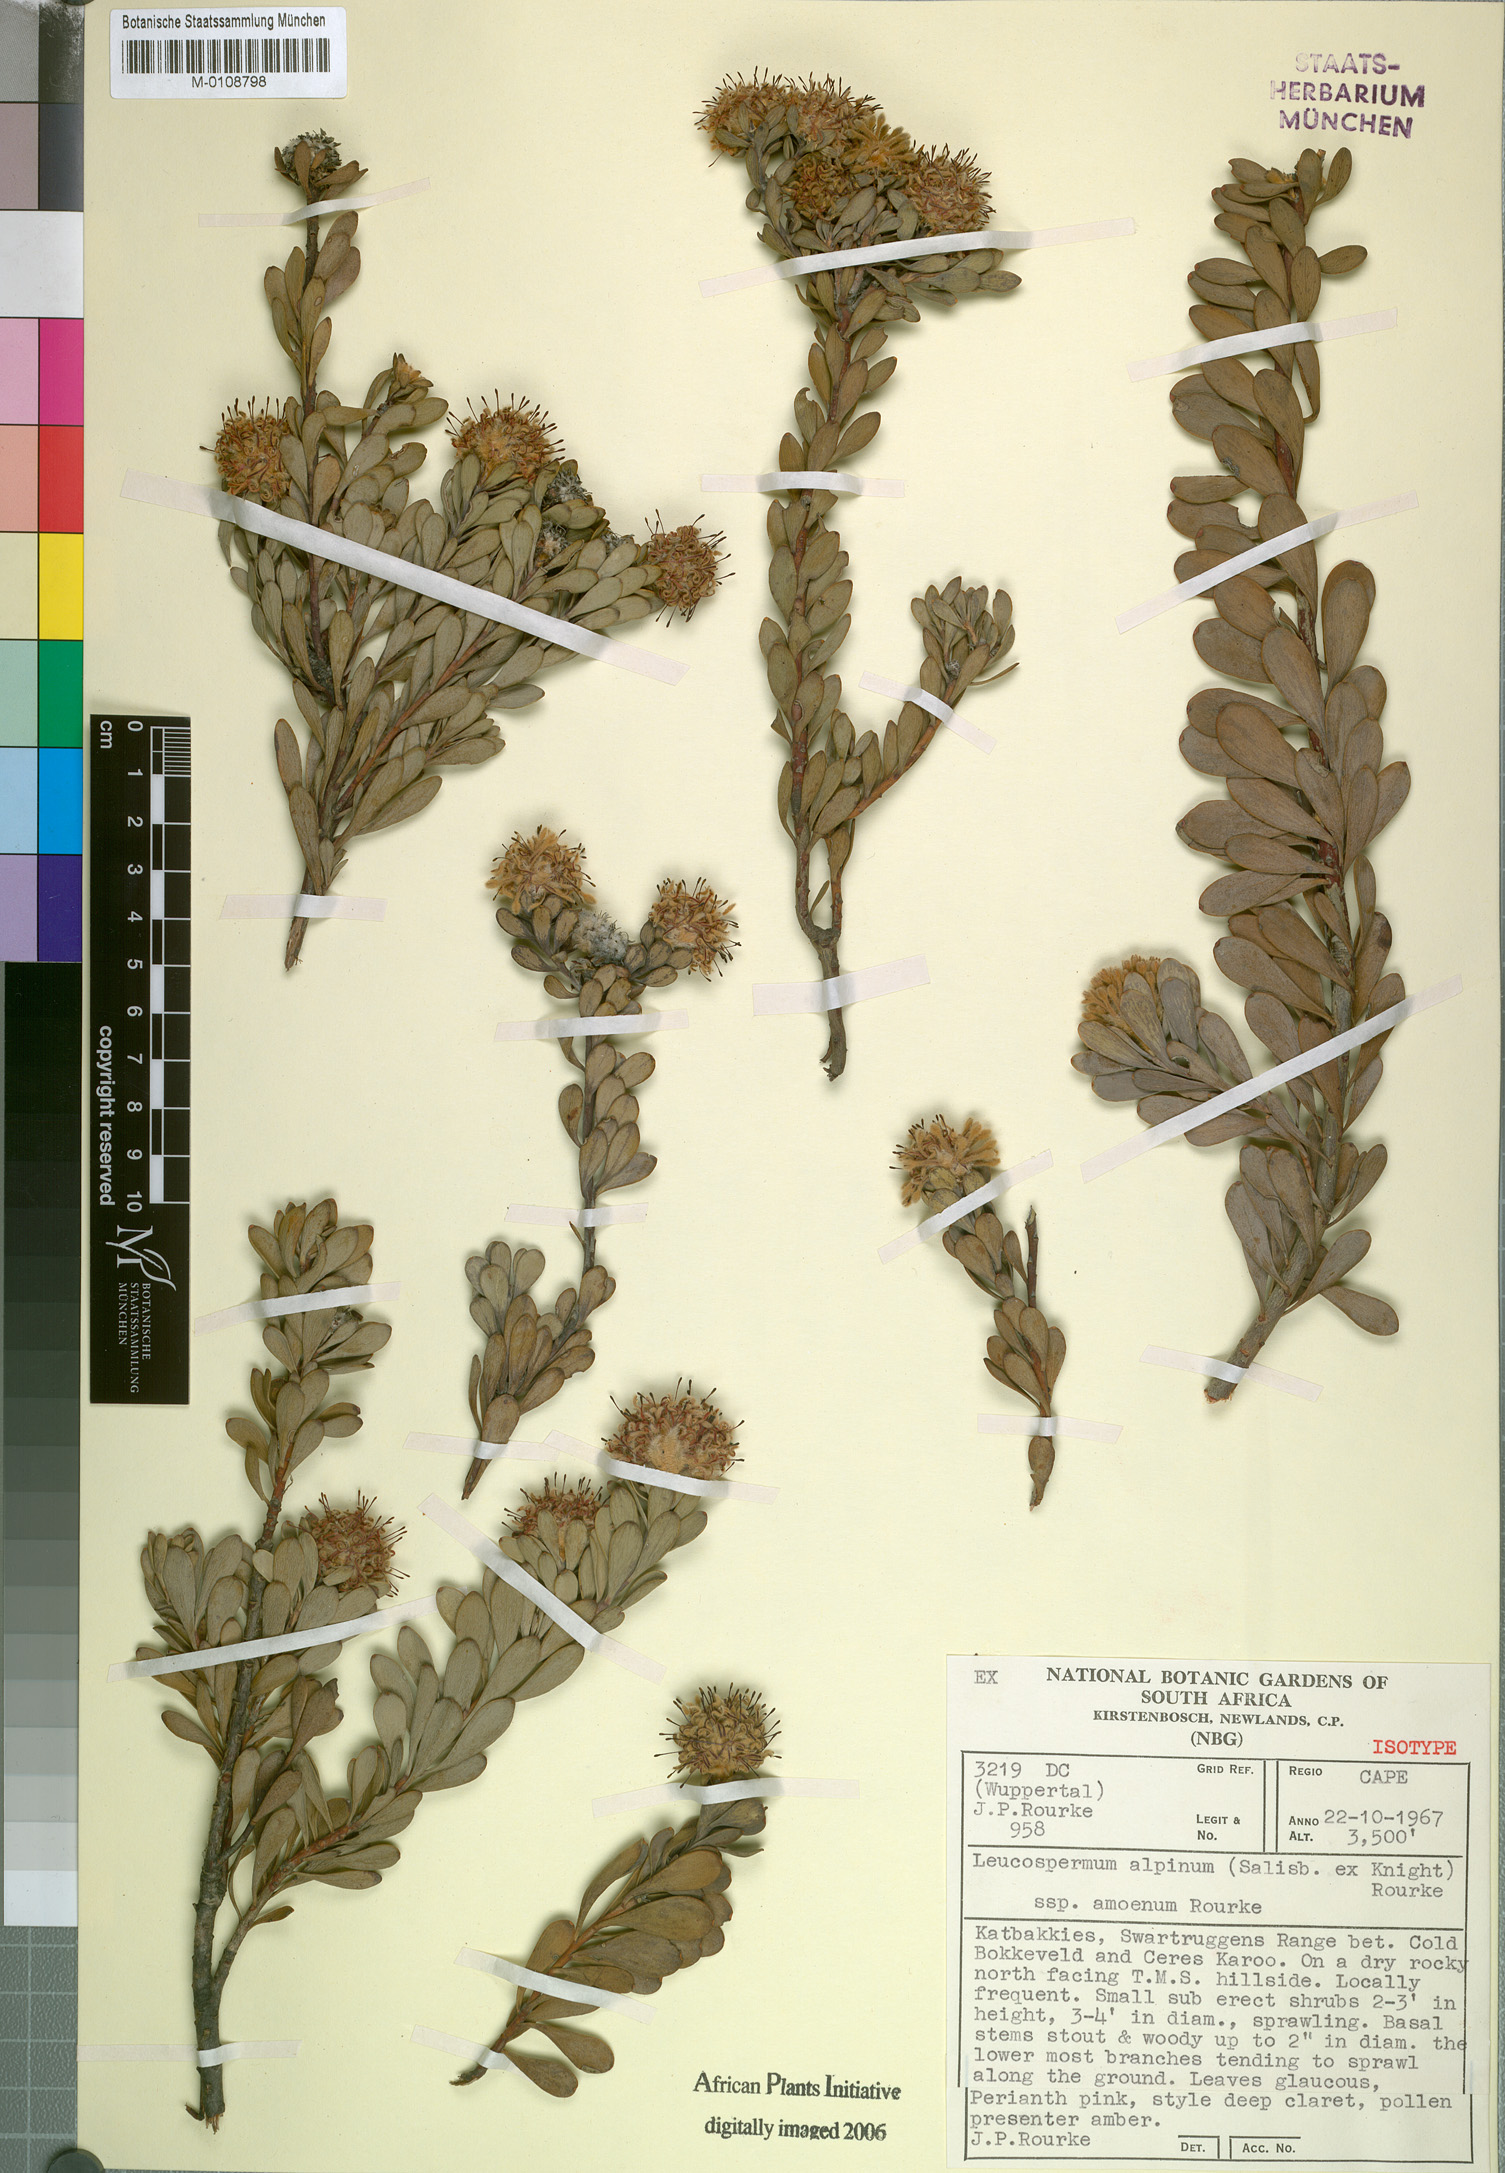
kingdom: Plantae
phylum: Tracheophyta
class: Magnoliopsida
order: Proteales
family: Proteaceae
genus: Vexatorella
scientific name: Vexatorella amoena
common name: Swartruggens vexator
